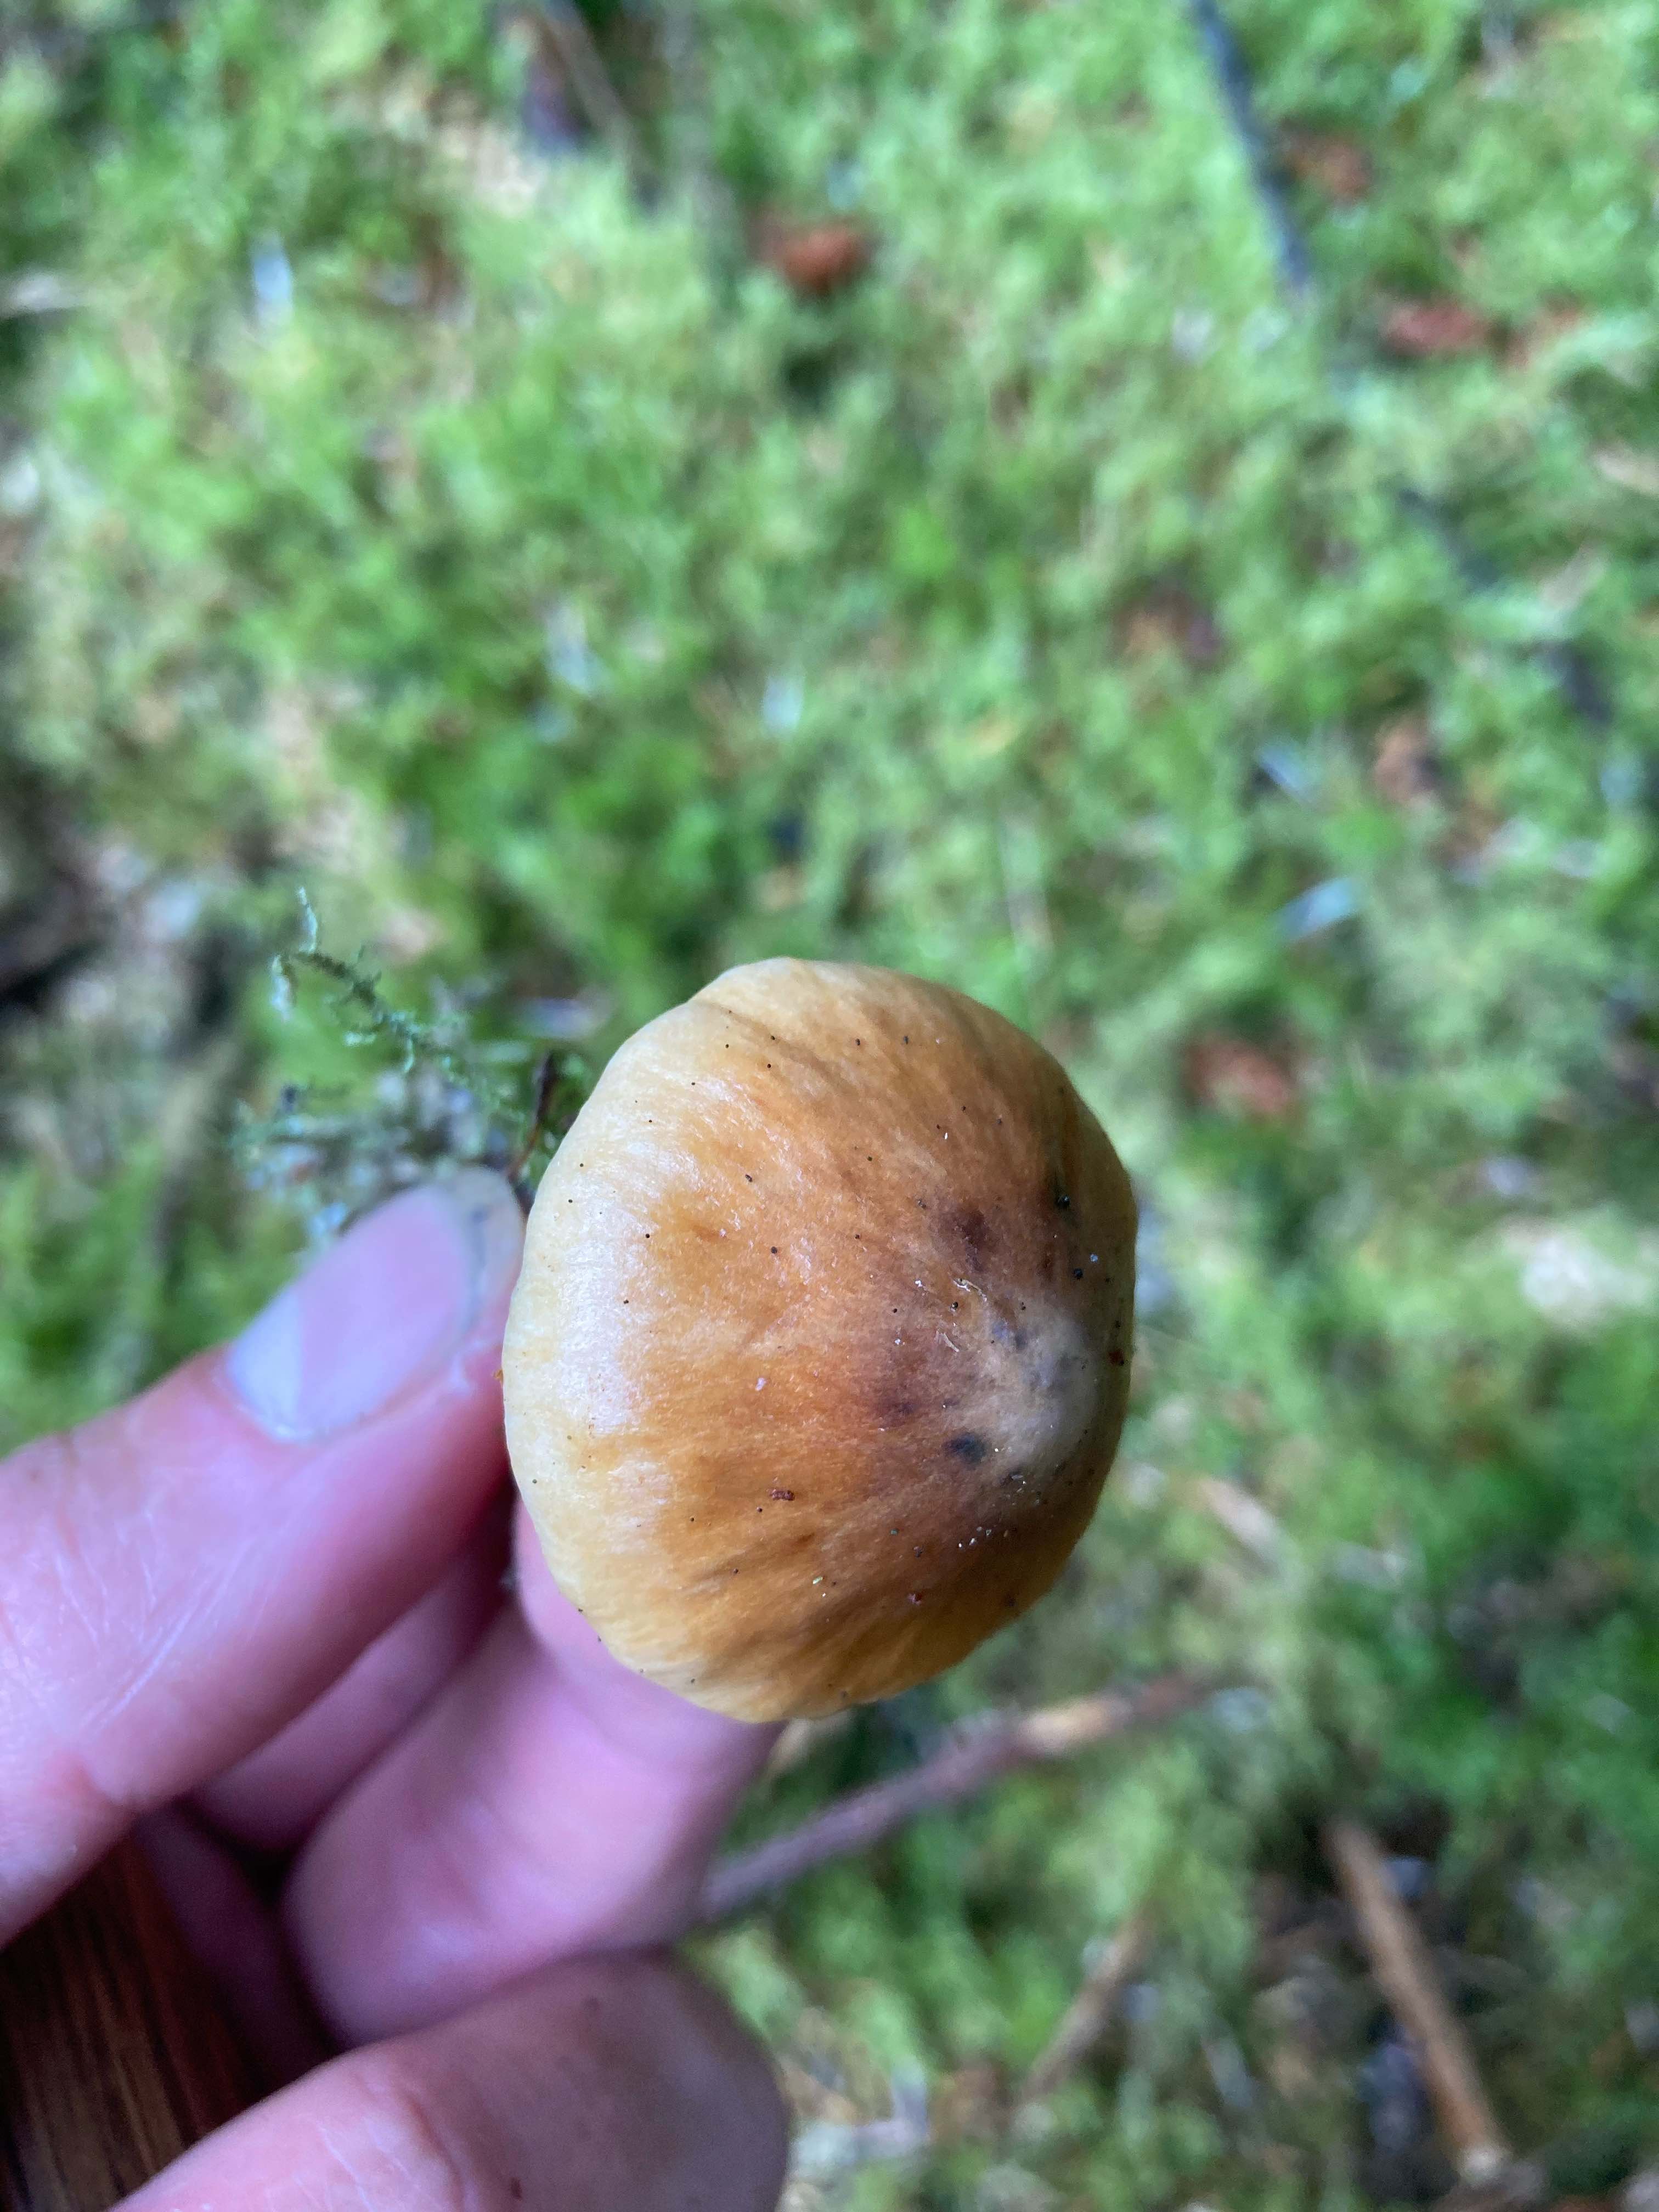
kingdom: Fungi
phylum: Basidiomycota
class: Agaricomycetes
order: Agaricales
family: Cortinariaceae
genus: Cortinarius
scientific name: Cortinarius
